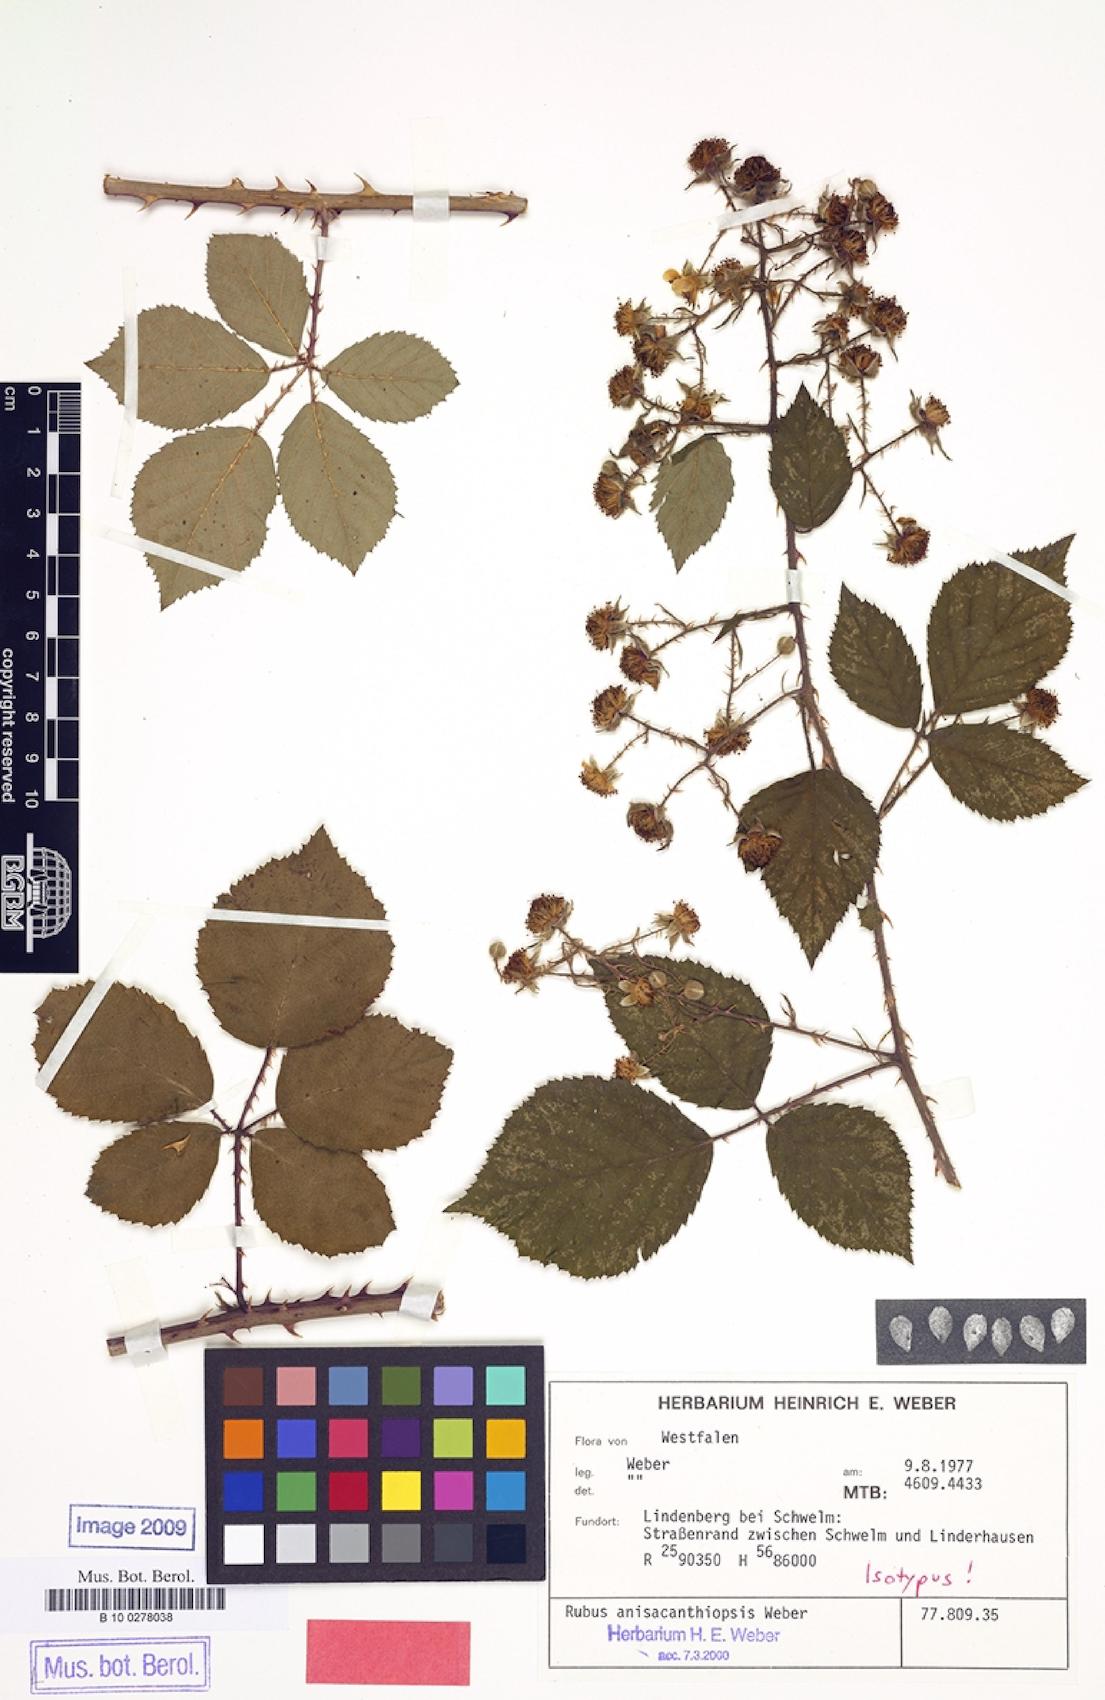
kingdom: Plantae
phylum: Tracheophyta
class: Magnoliopsida
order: Rosales
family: Rosaceae
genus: Rubus
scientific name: Rubus anisacanthiopsis
